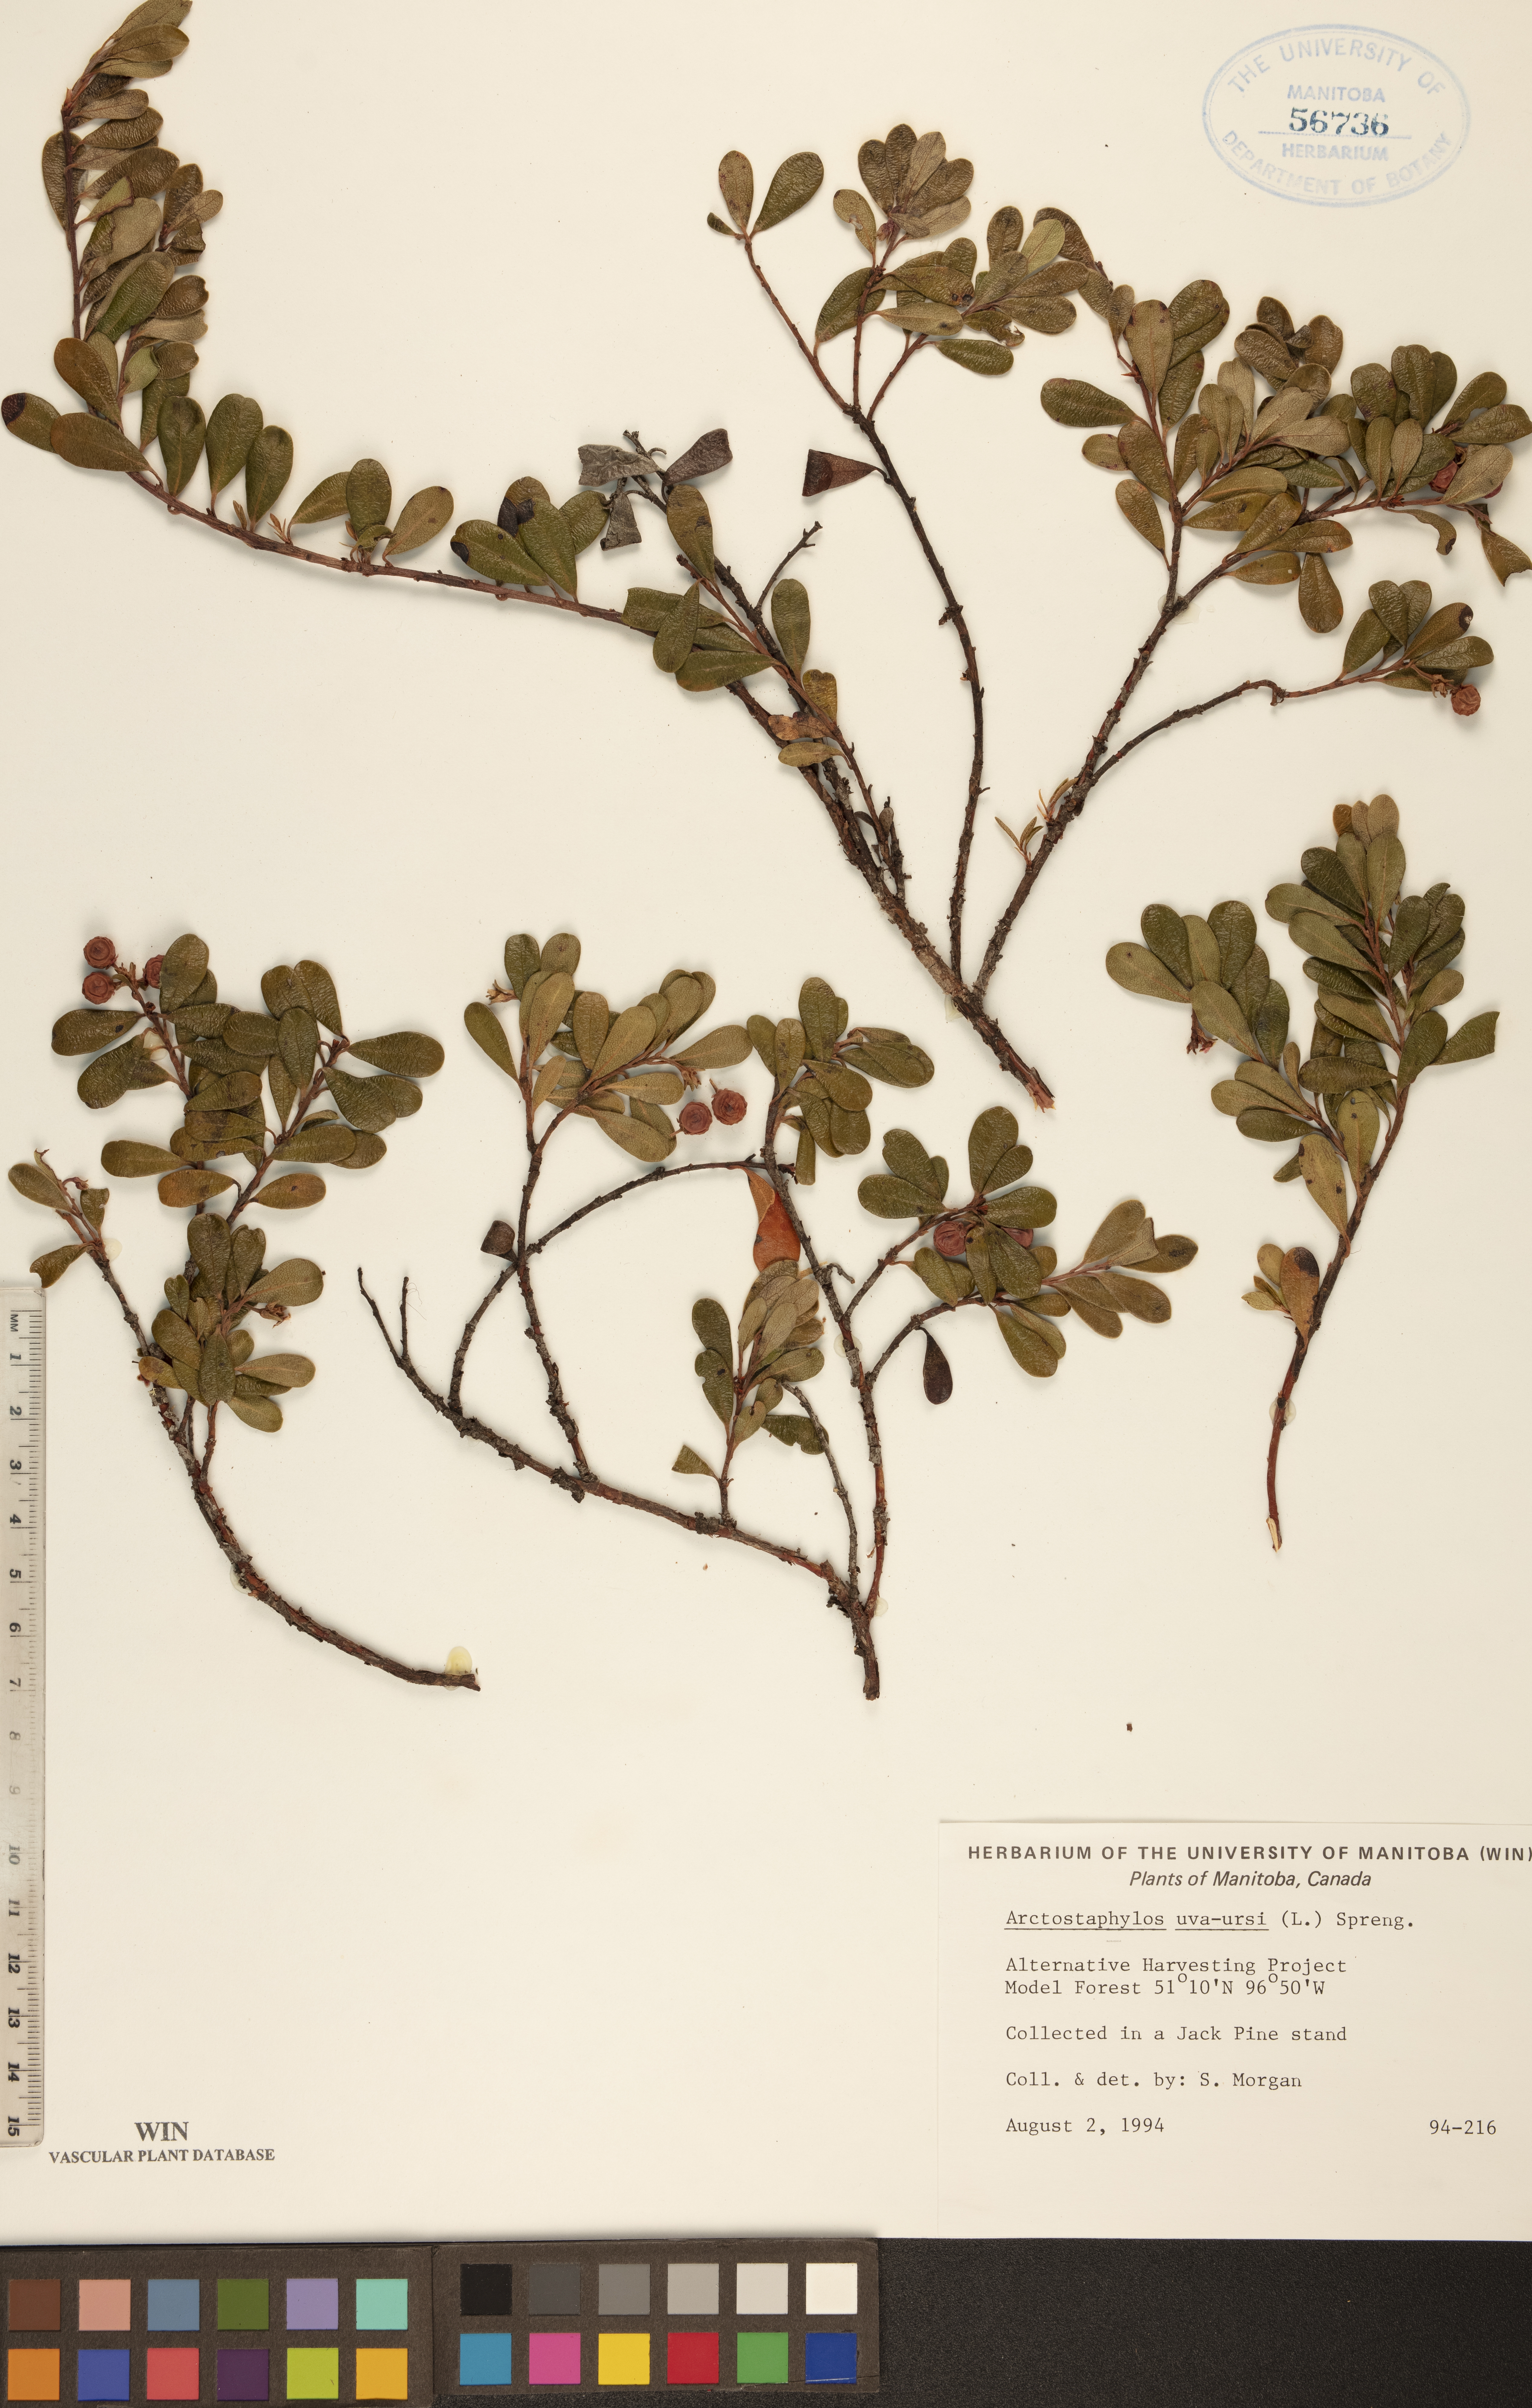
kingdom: Plantae
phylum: Tracheophyta
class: Magnoliopsida
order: Ericales
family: Ericaceae
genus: Arctostaphylos
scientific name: Arctostaphylos uva-ursi
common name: Bearberry
